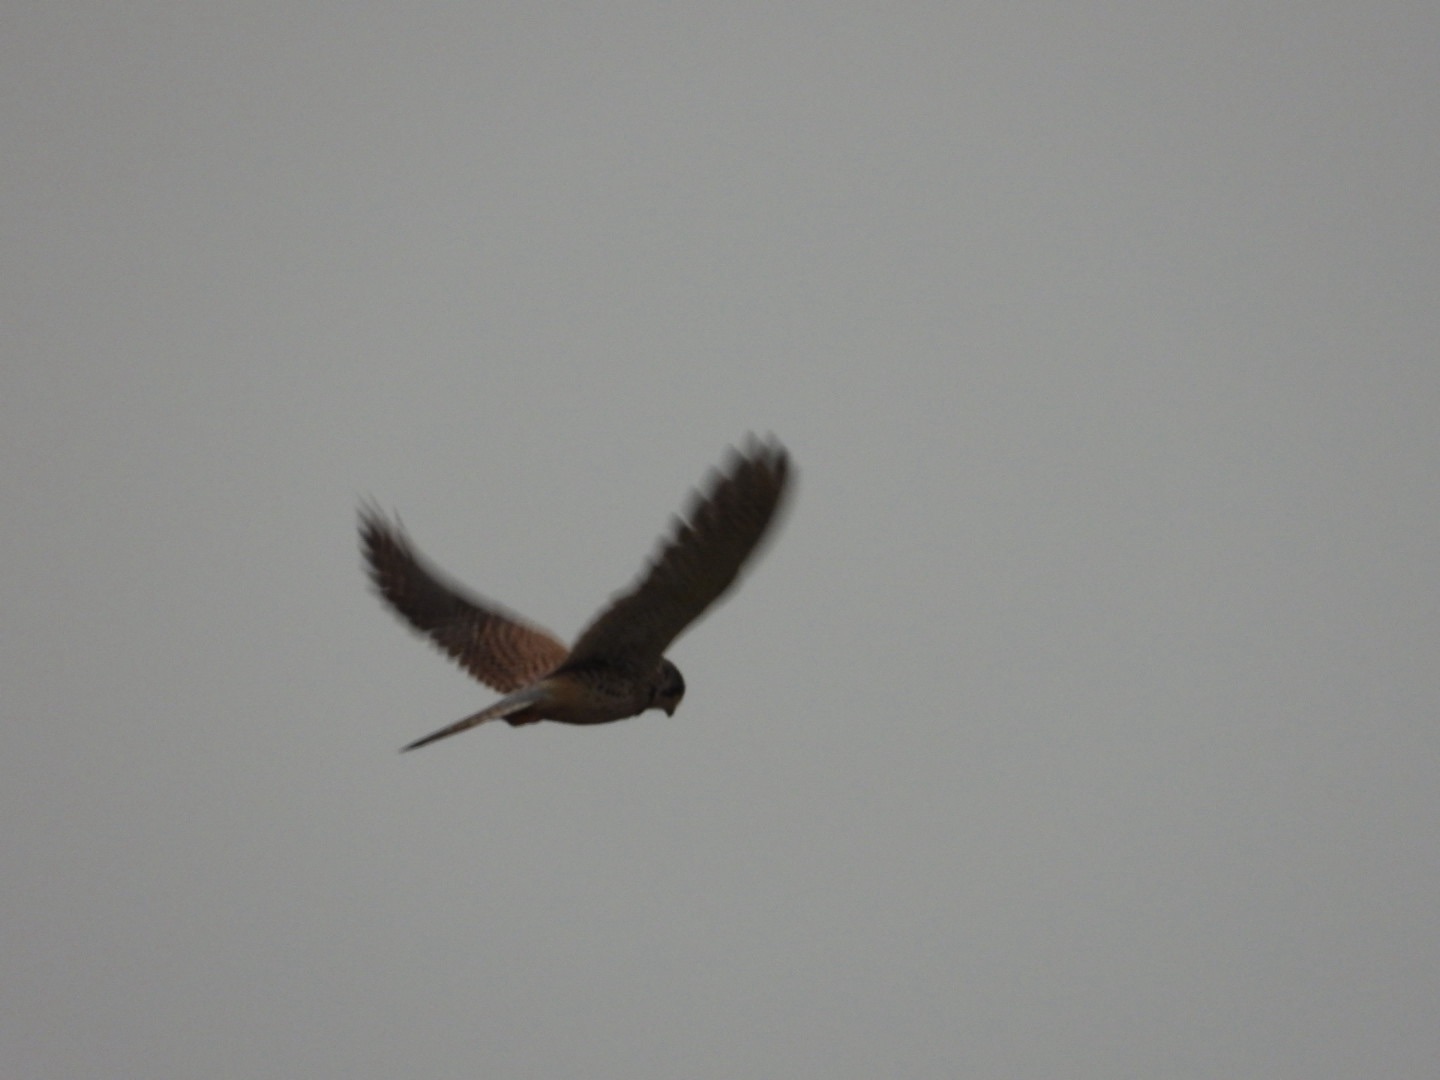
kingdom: Animalia
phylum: Chordata
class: Aves
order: Falconiformes
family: Falconidae
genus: Falco
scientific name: Falco tinnunculus
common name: Tårnfalk
